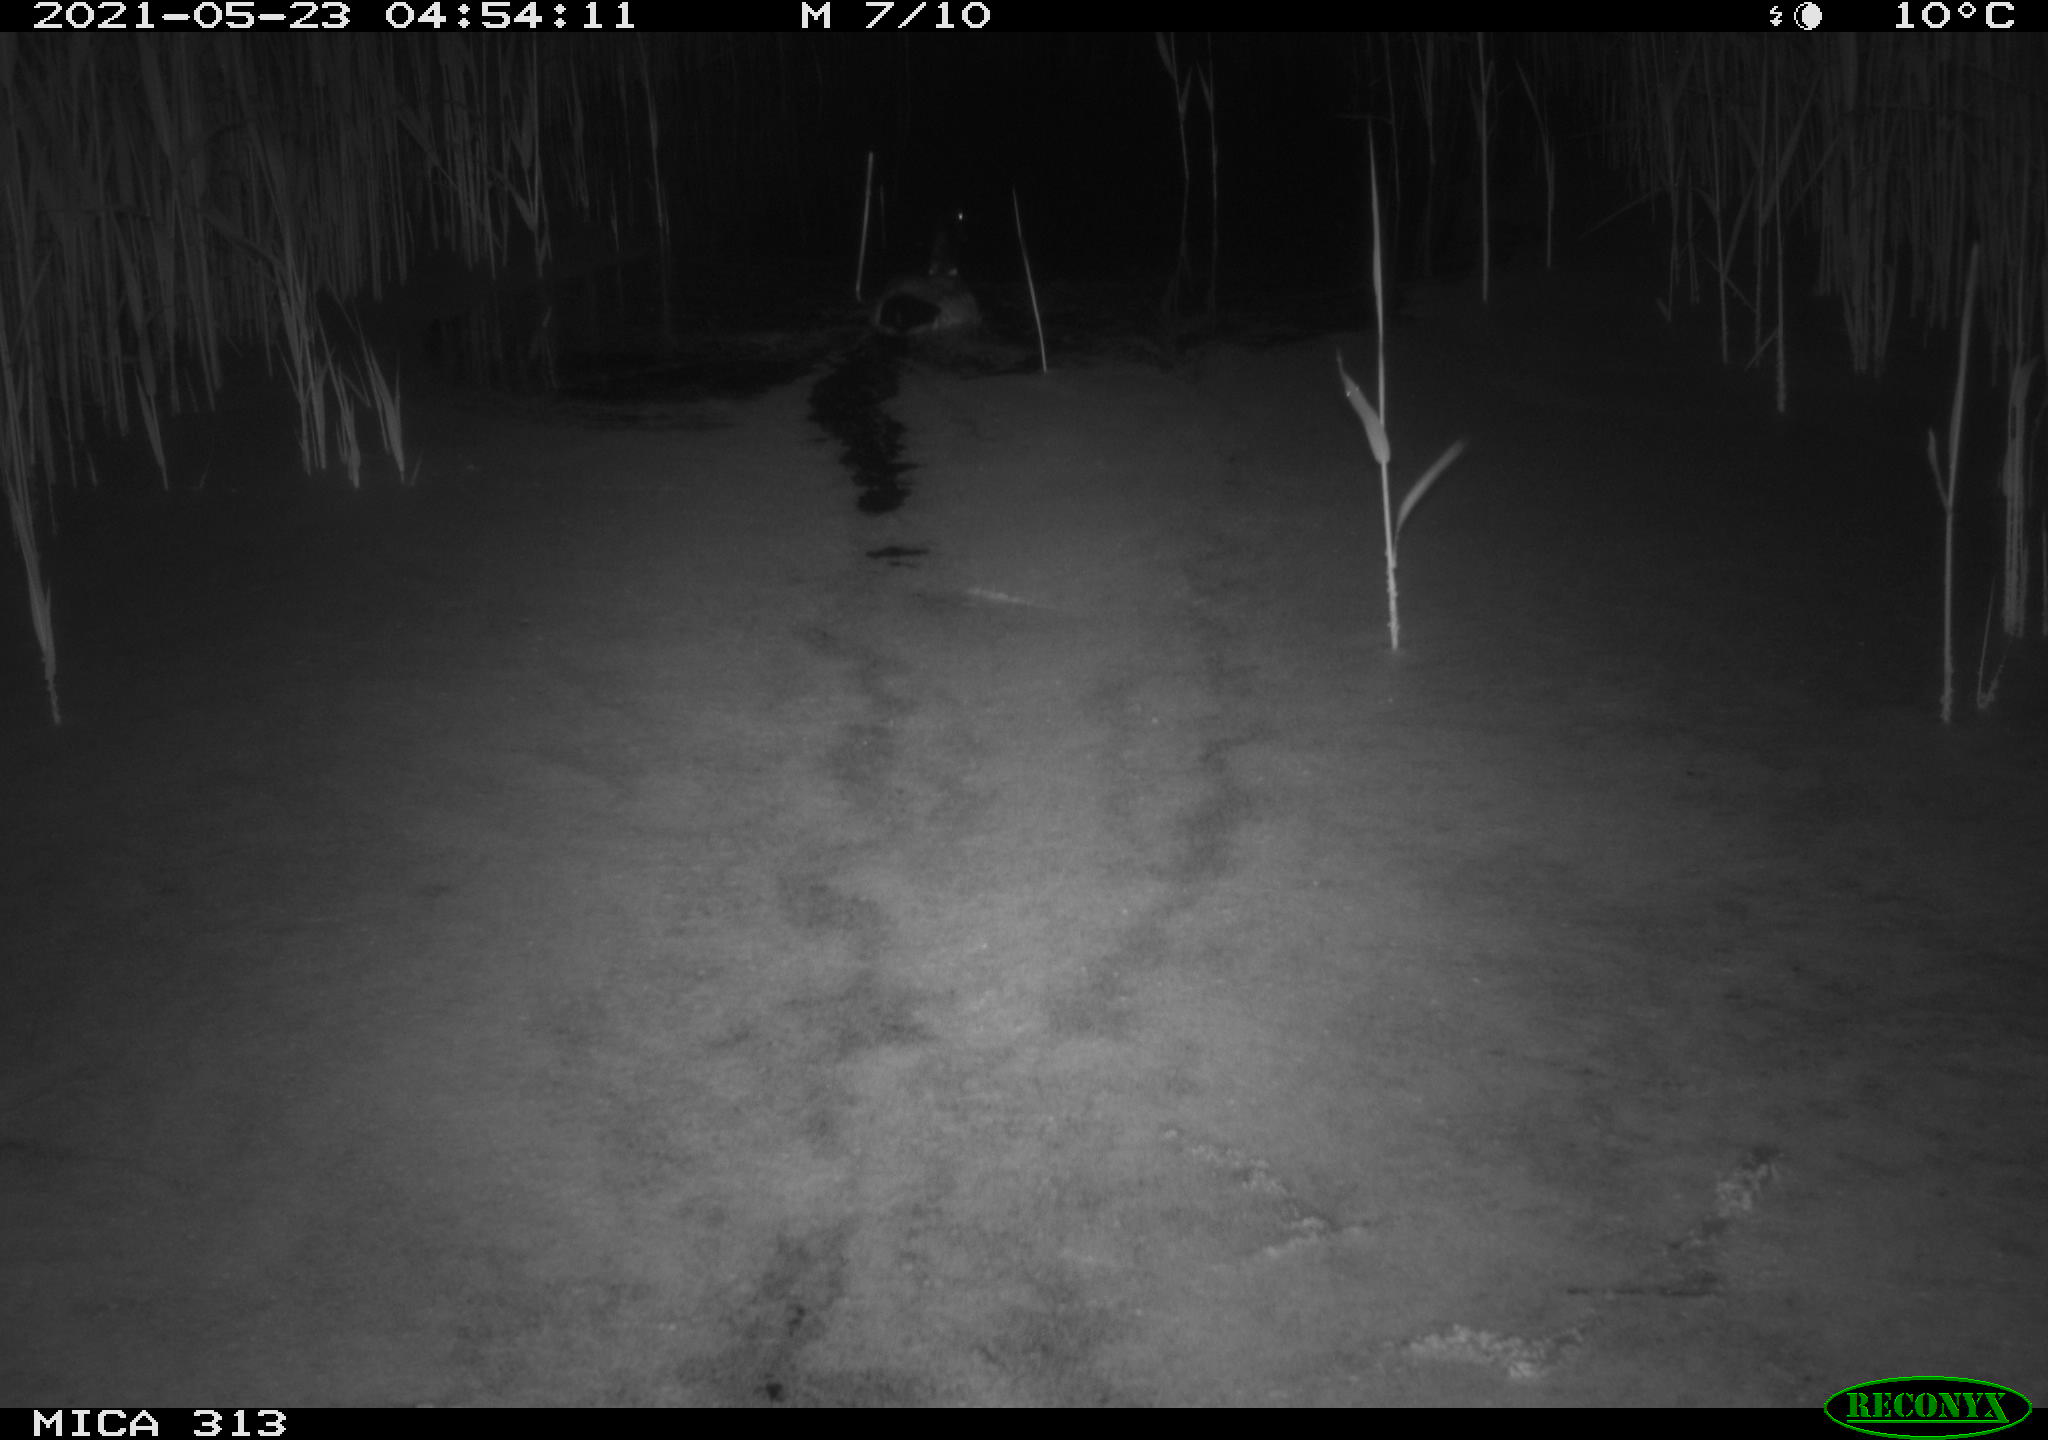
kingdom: Animalia
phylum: Chordata
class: Aves
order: Anseriformes
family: Anatidae
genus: Anas
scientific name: Anas platyrhynchos
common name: Mallard
